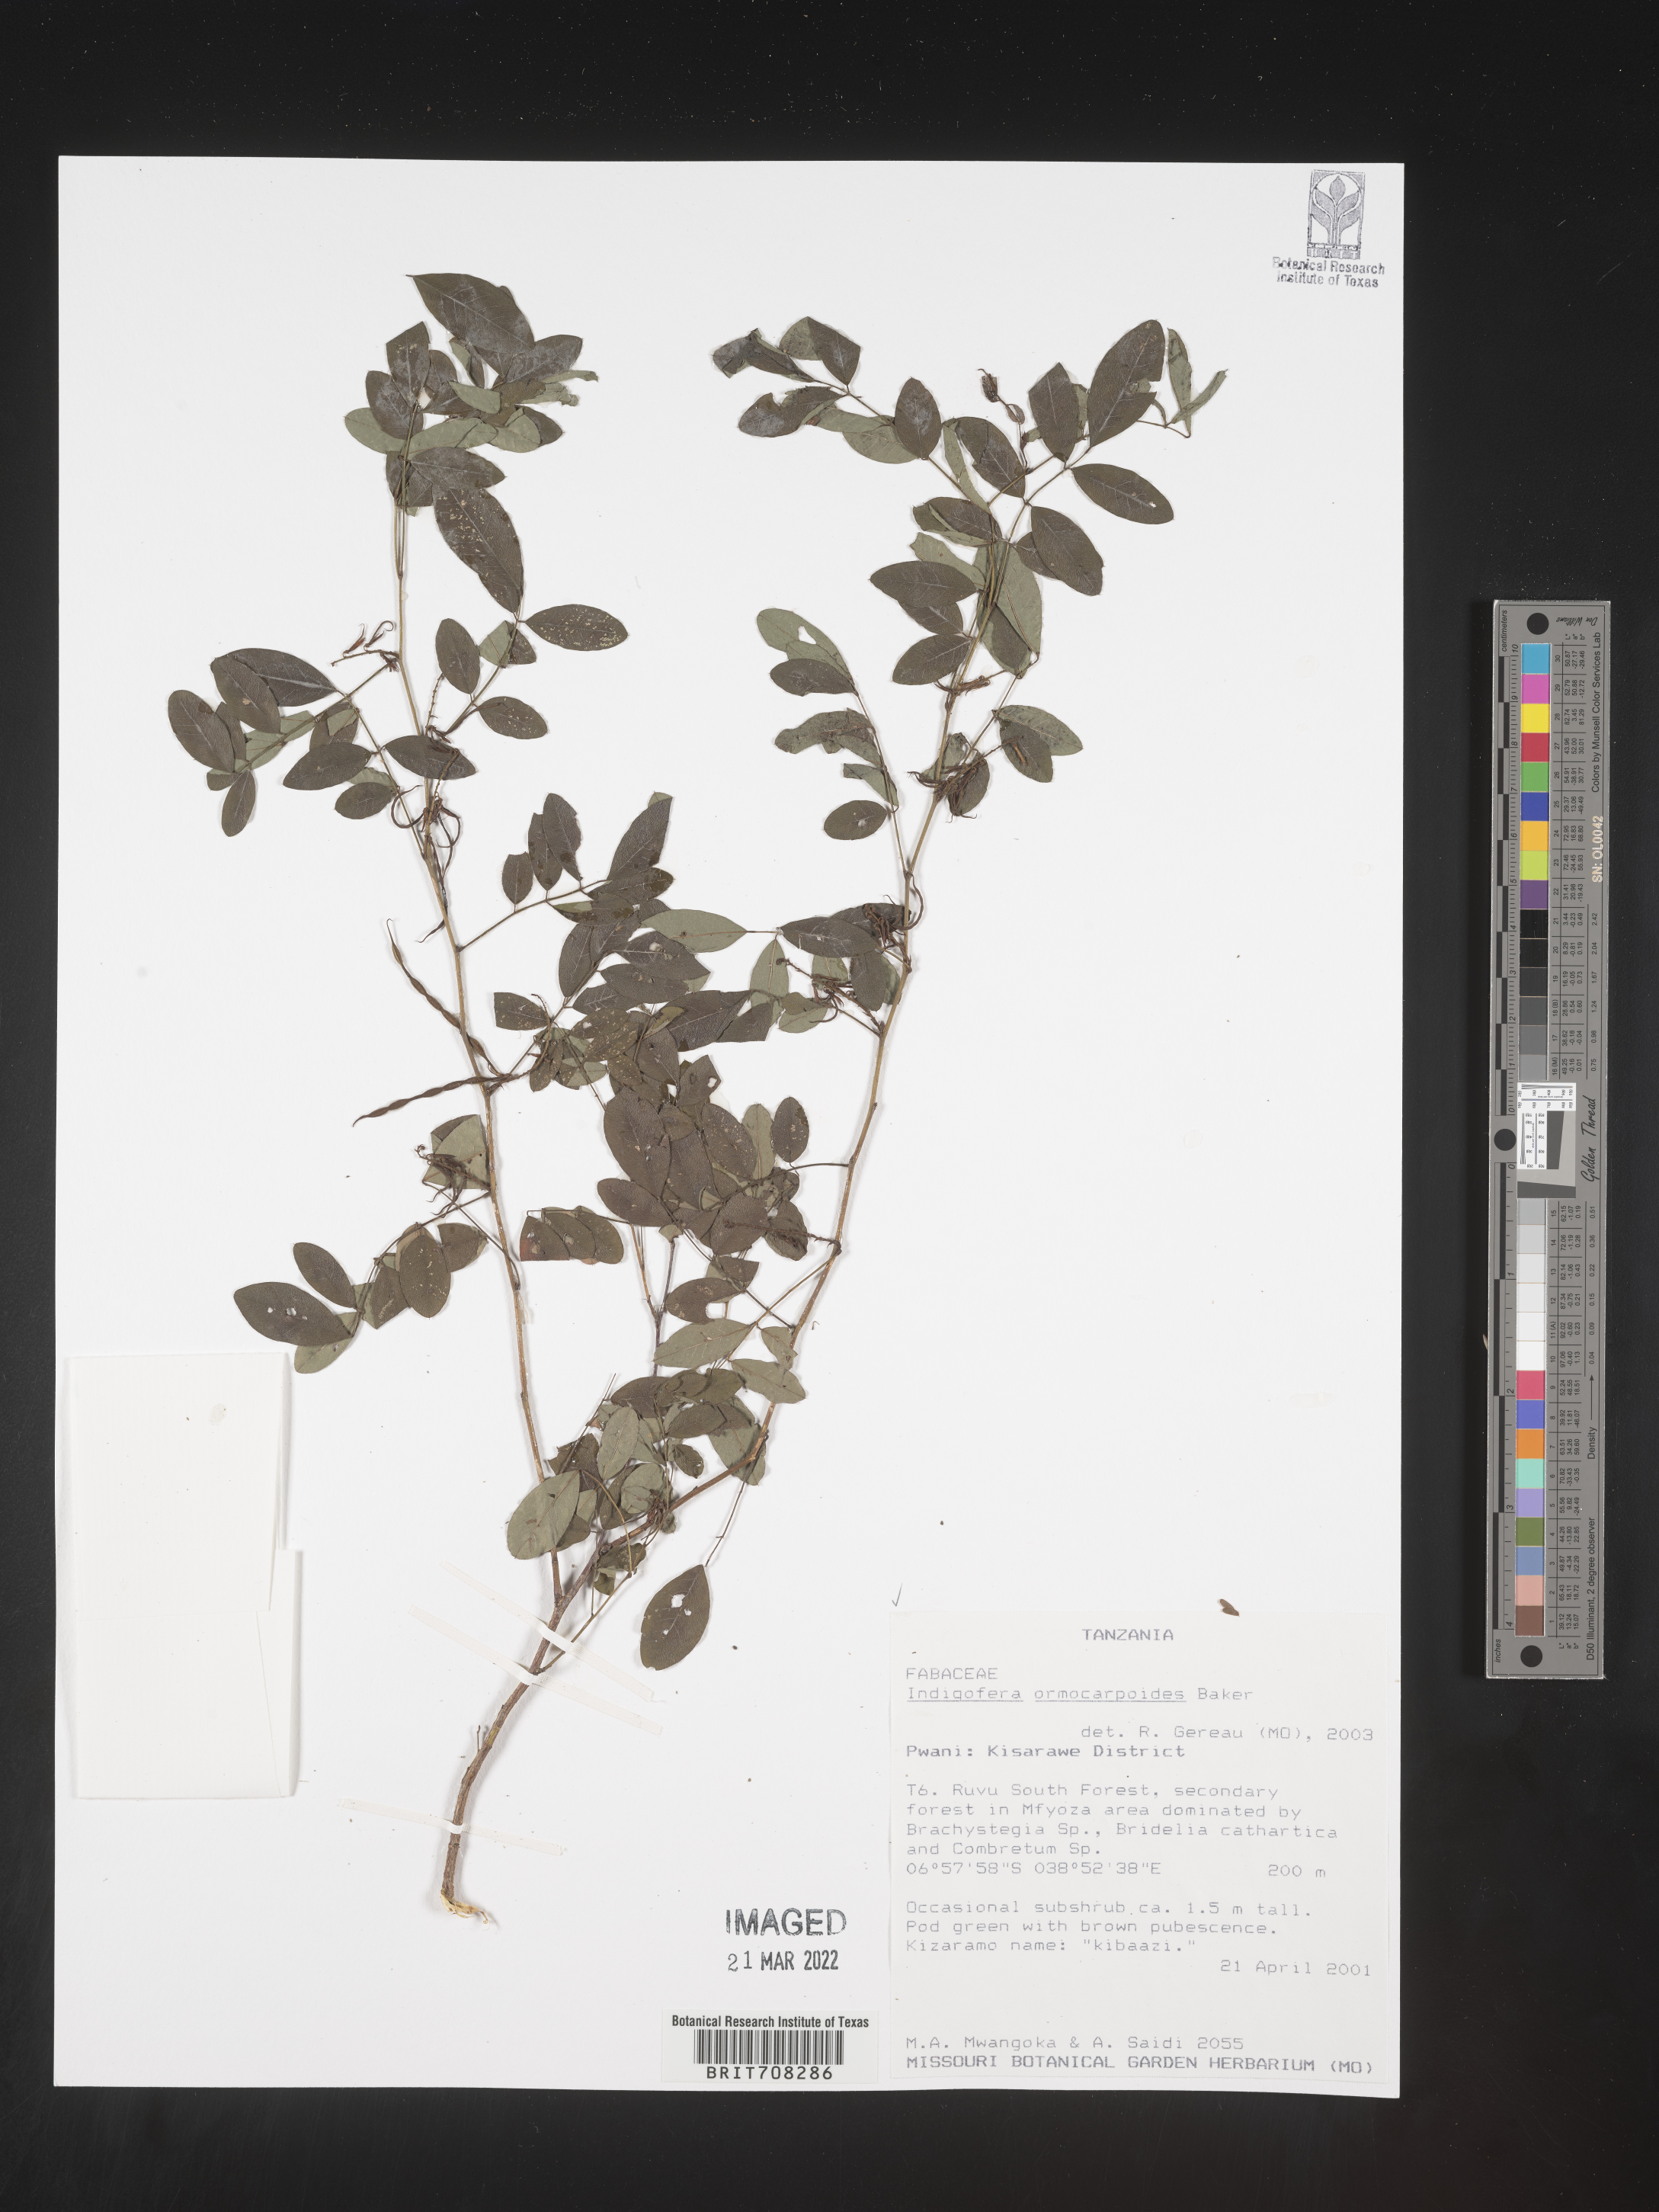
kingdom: Plantae
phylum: Tracheophyta
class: Magnoliopsida
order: Fabales
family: Fabaceae
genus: Indigofera
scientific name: Indigofera
